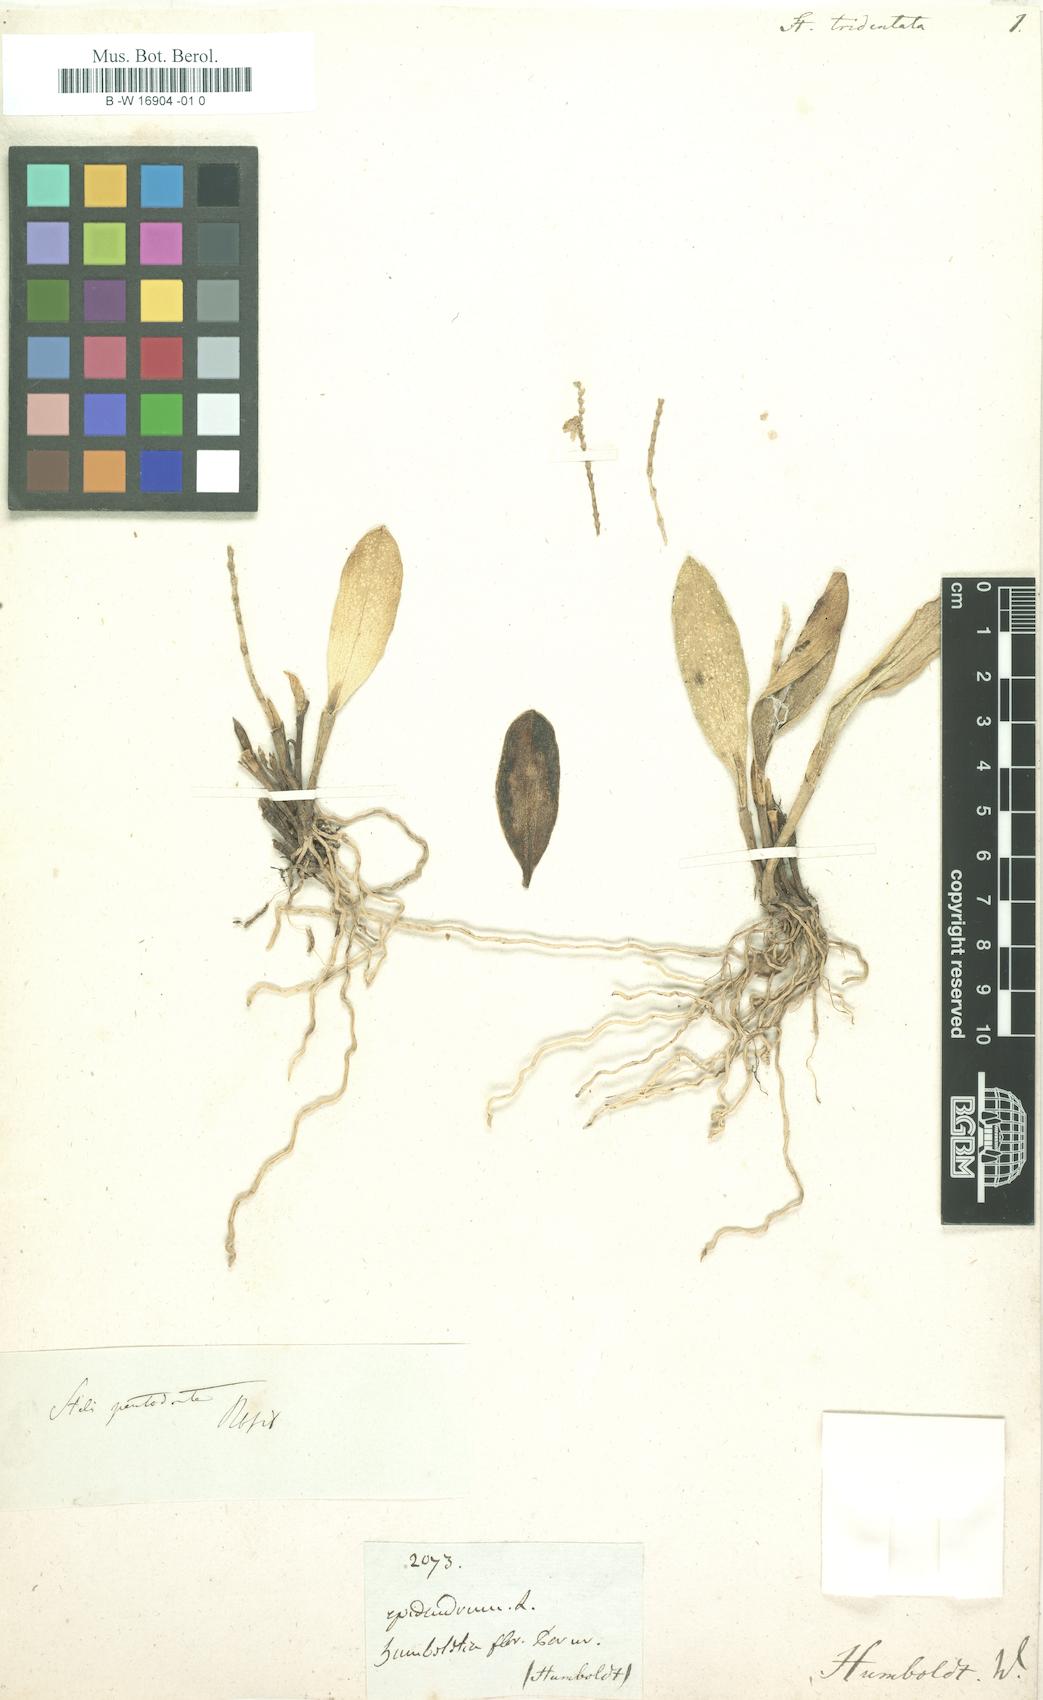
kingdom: Plantae
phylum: Tracheophyta
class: Liliopsida
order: Asparagales
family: Orchidaceae
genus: Stelis
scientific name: Stelis tridentata
